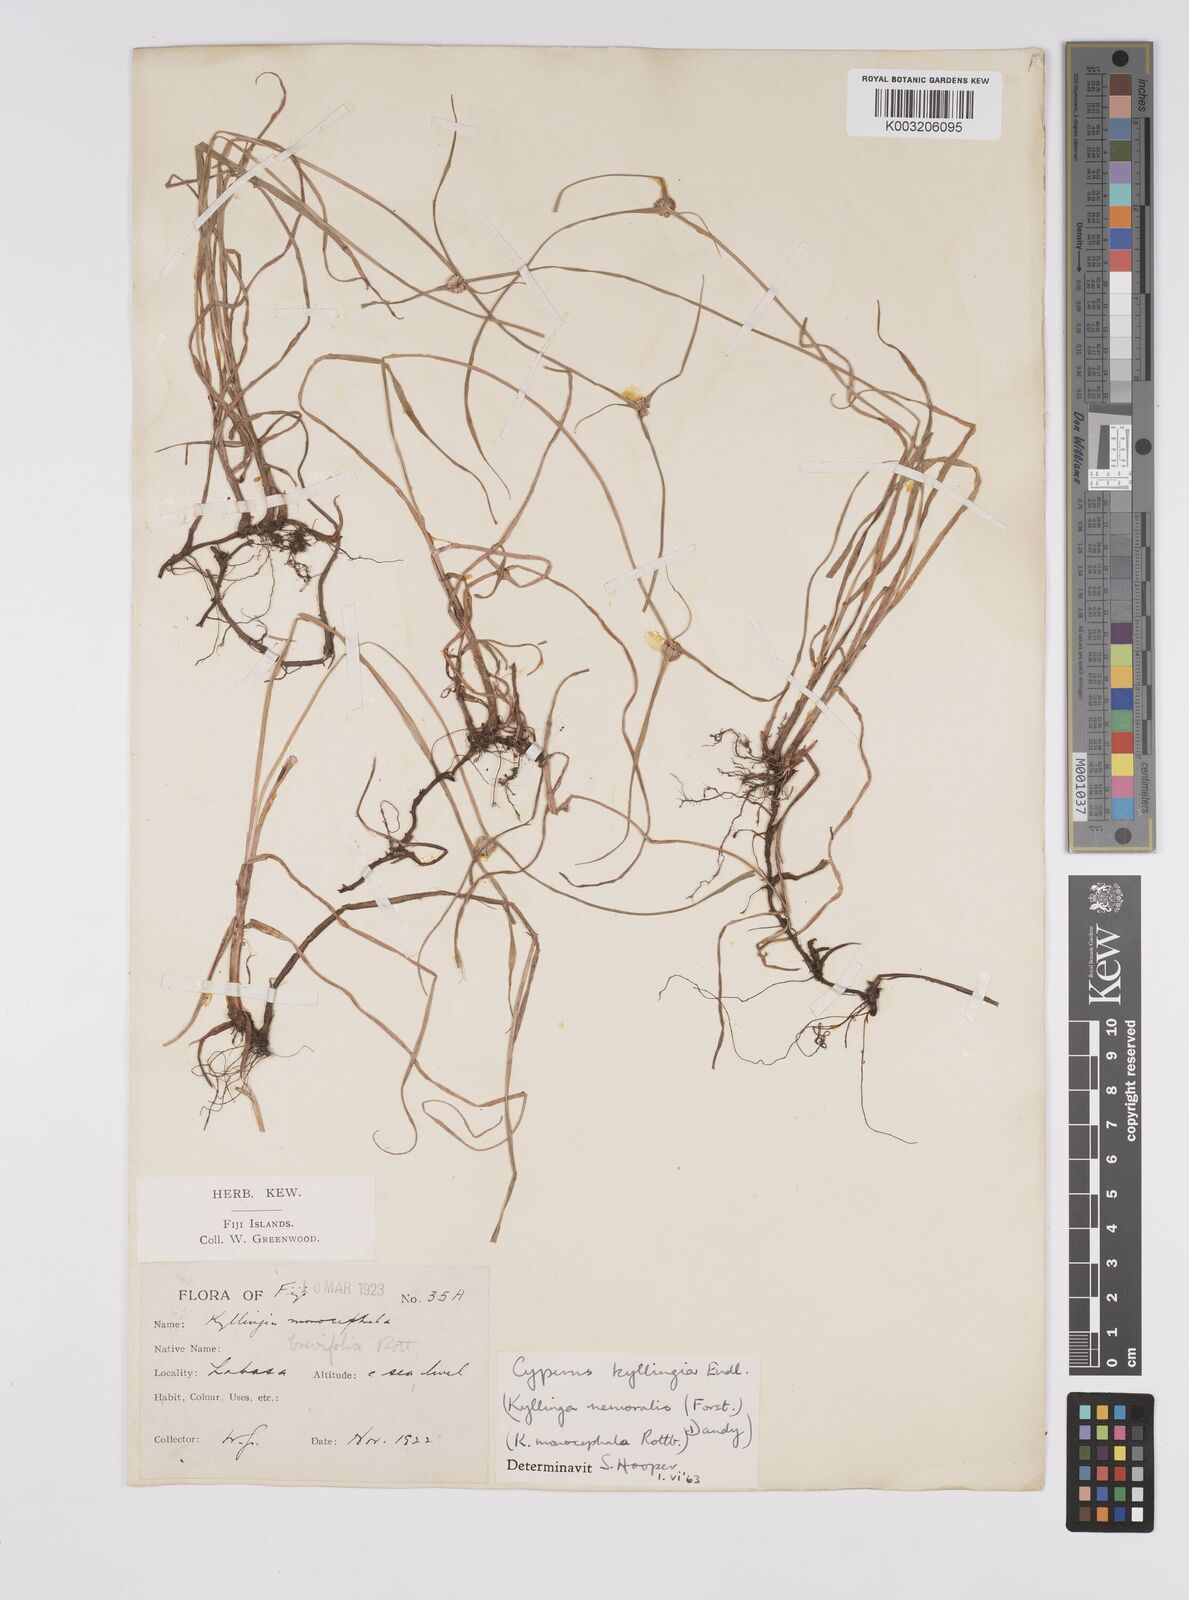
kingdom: Plantae
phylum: Tracheophyta
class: Liliopsida
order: Poales
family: Cyperaceae
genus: Cyperus
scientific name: Cyperus nemoralis
